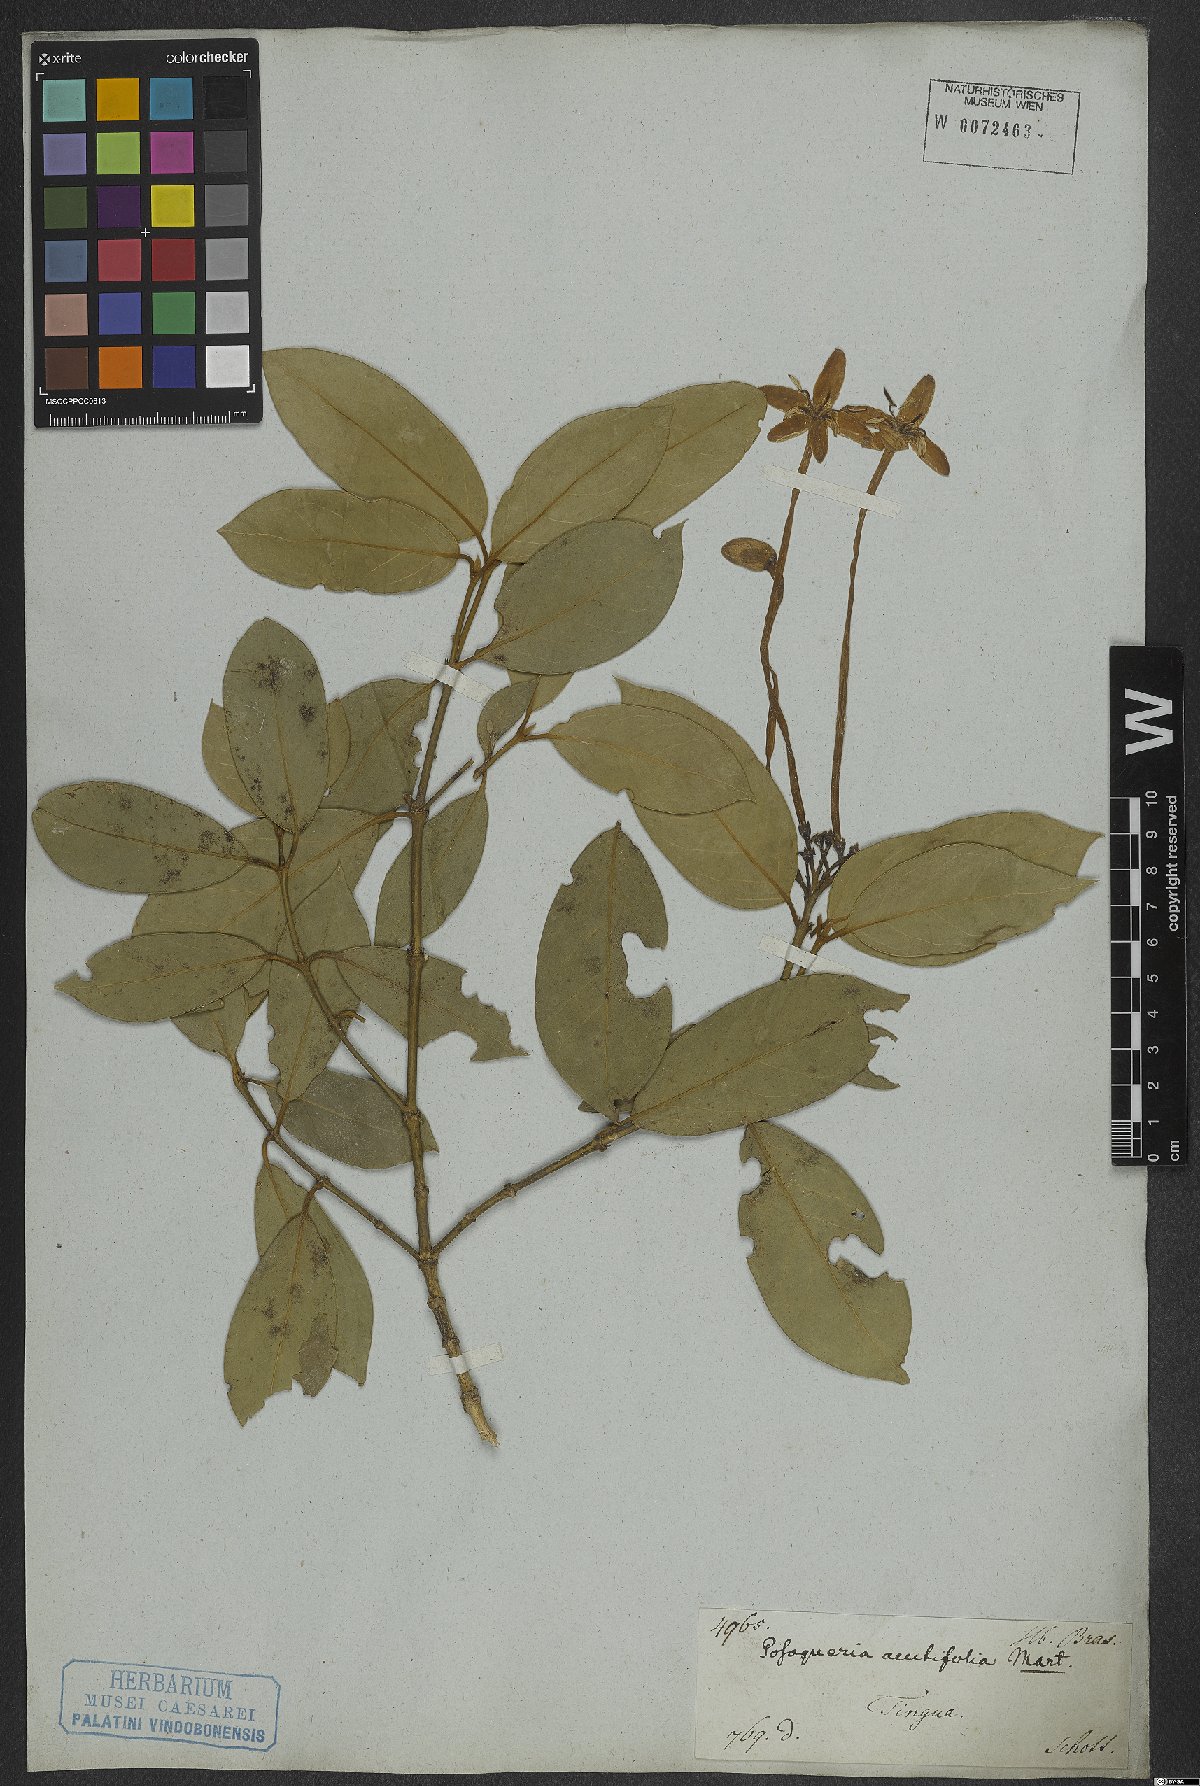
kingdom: Plantae
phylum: Tracheophyta
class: Magnoliopsida
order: Gentianales
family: Rubiaceae
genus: Posoqueria
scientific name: Posoqueria acutifolia
